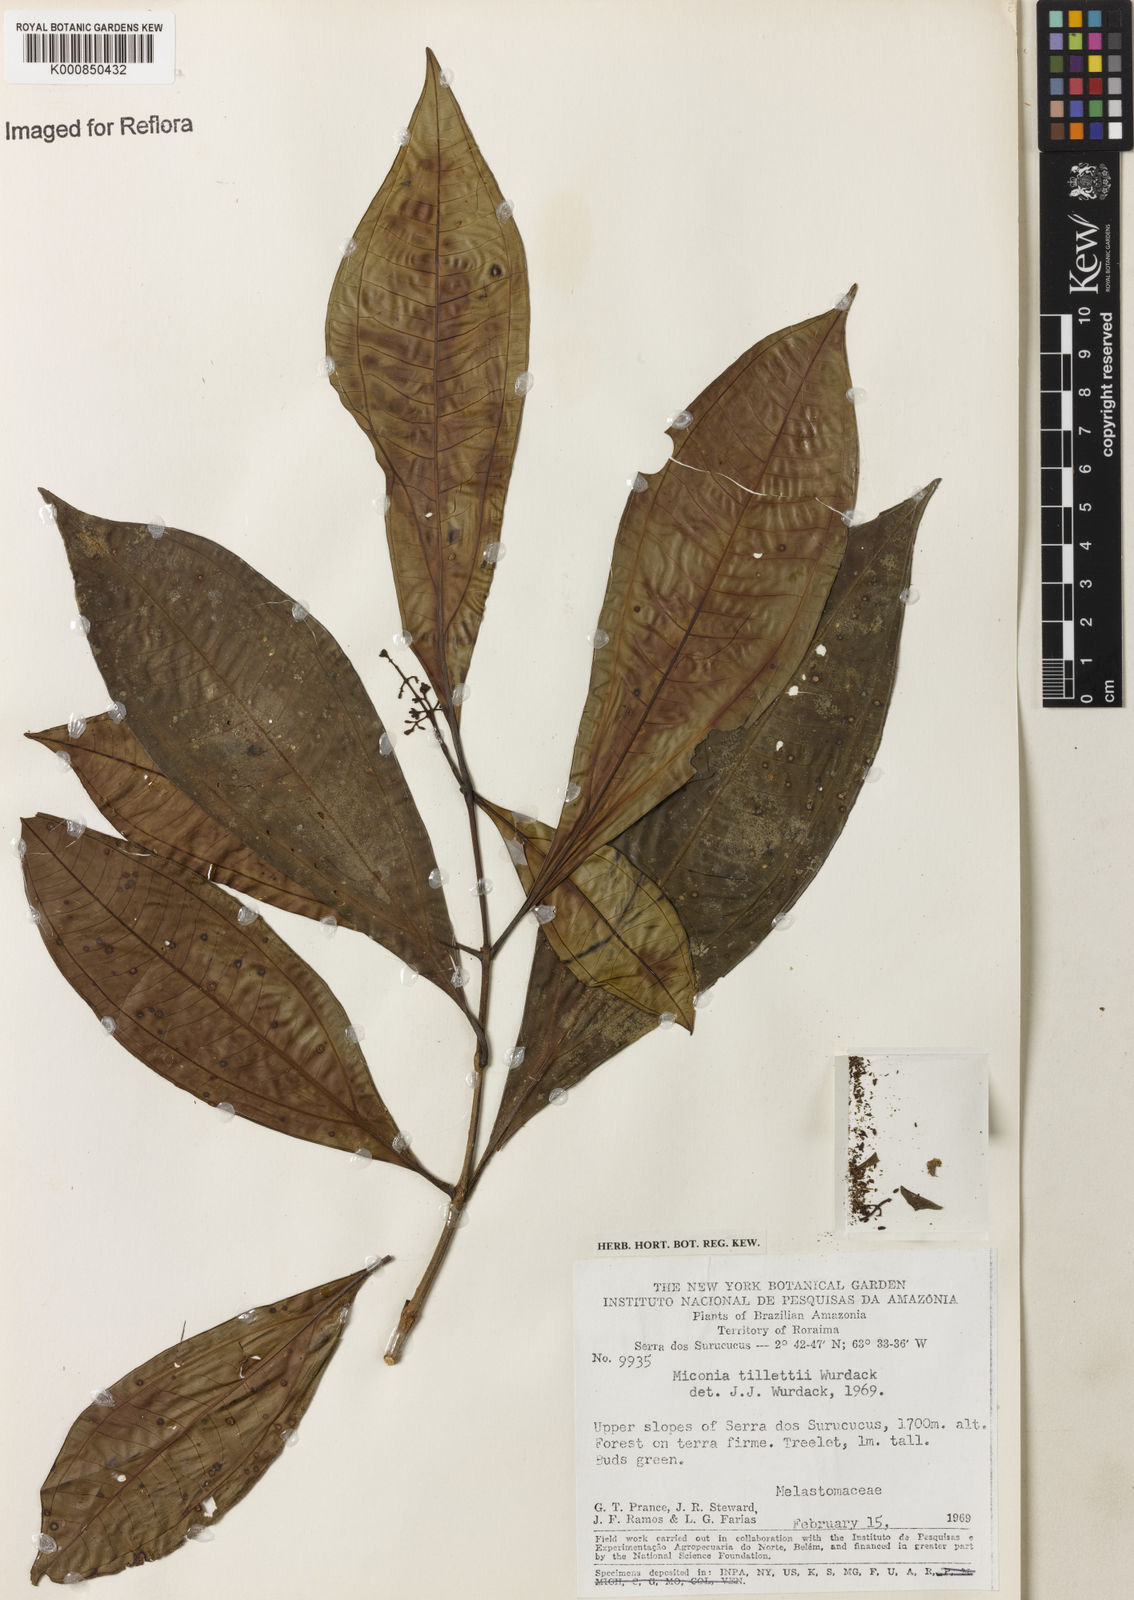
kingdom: Plantae
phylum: Tracheophyta
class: Magnoliopsida
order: Myrtales
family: Melastomataceae
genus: Miconia
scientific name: Miconia tillettii
